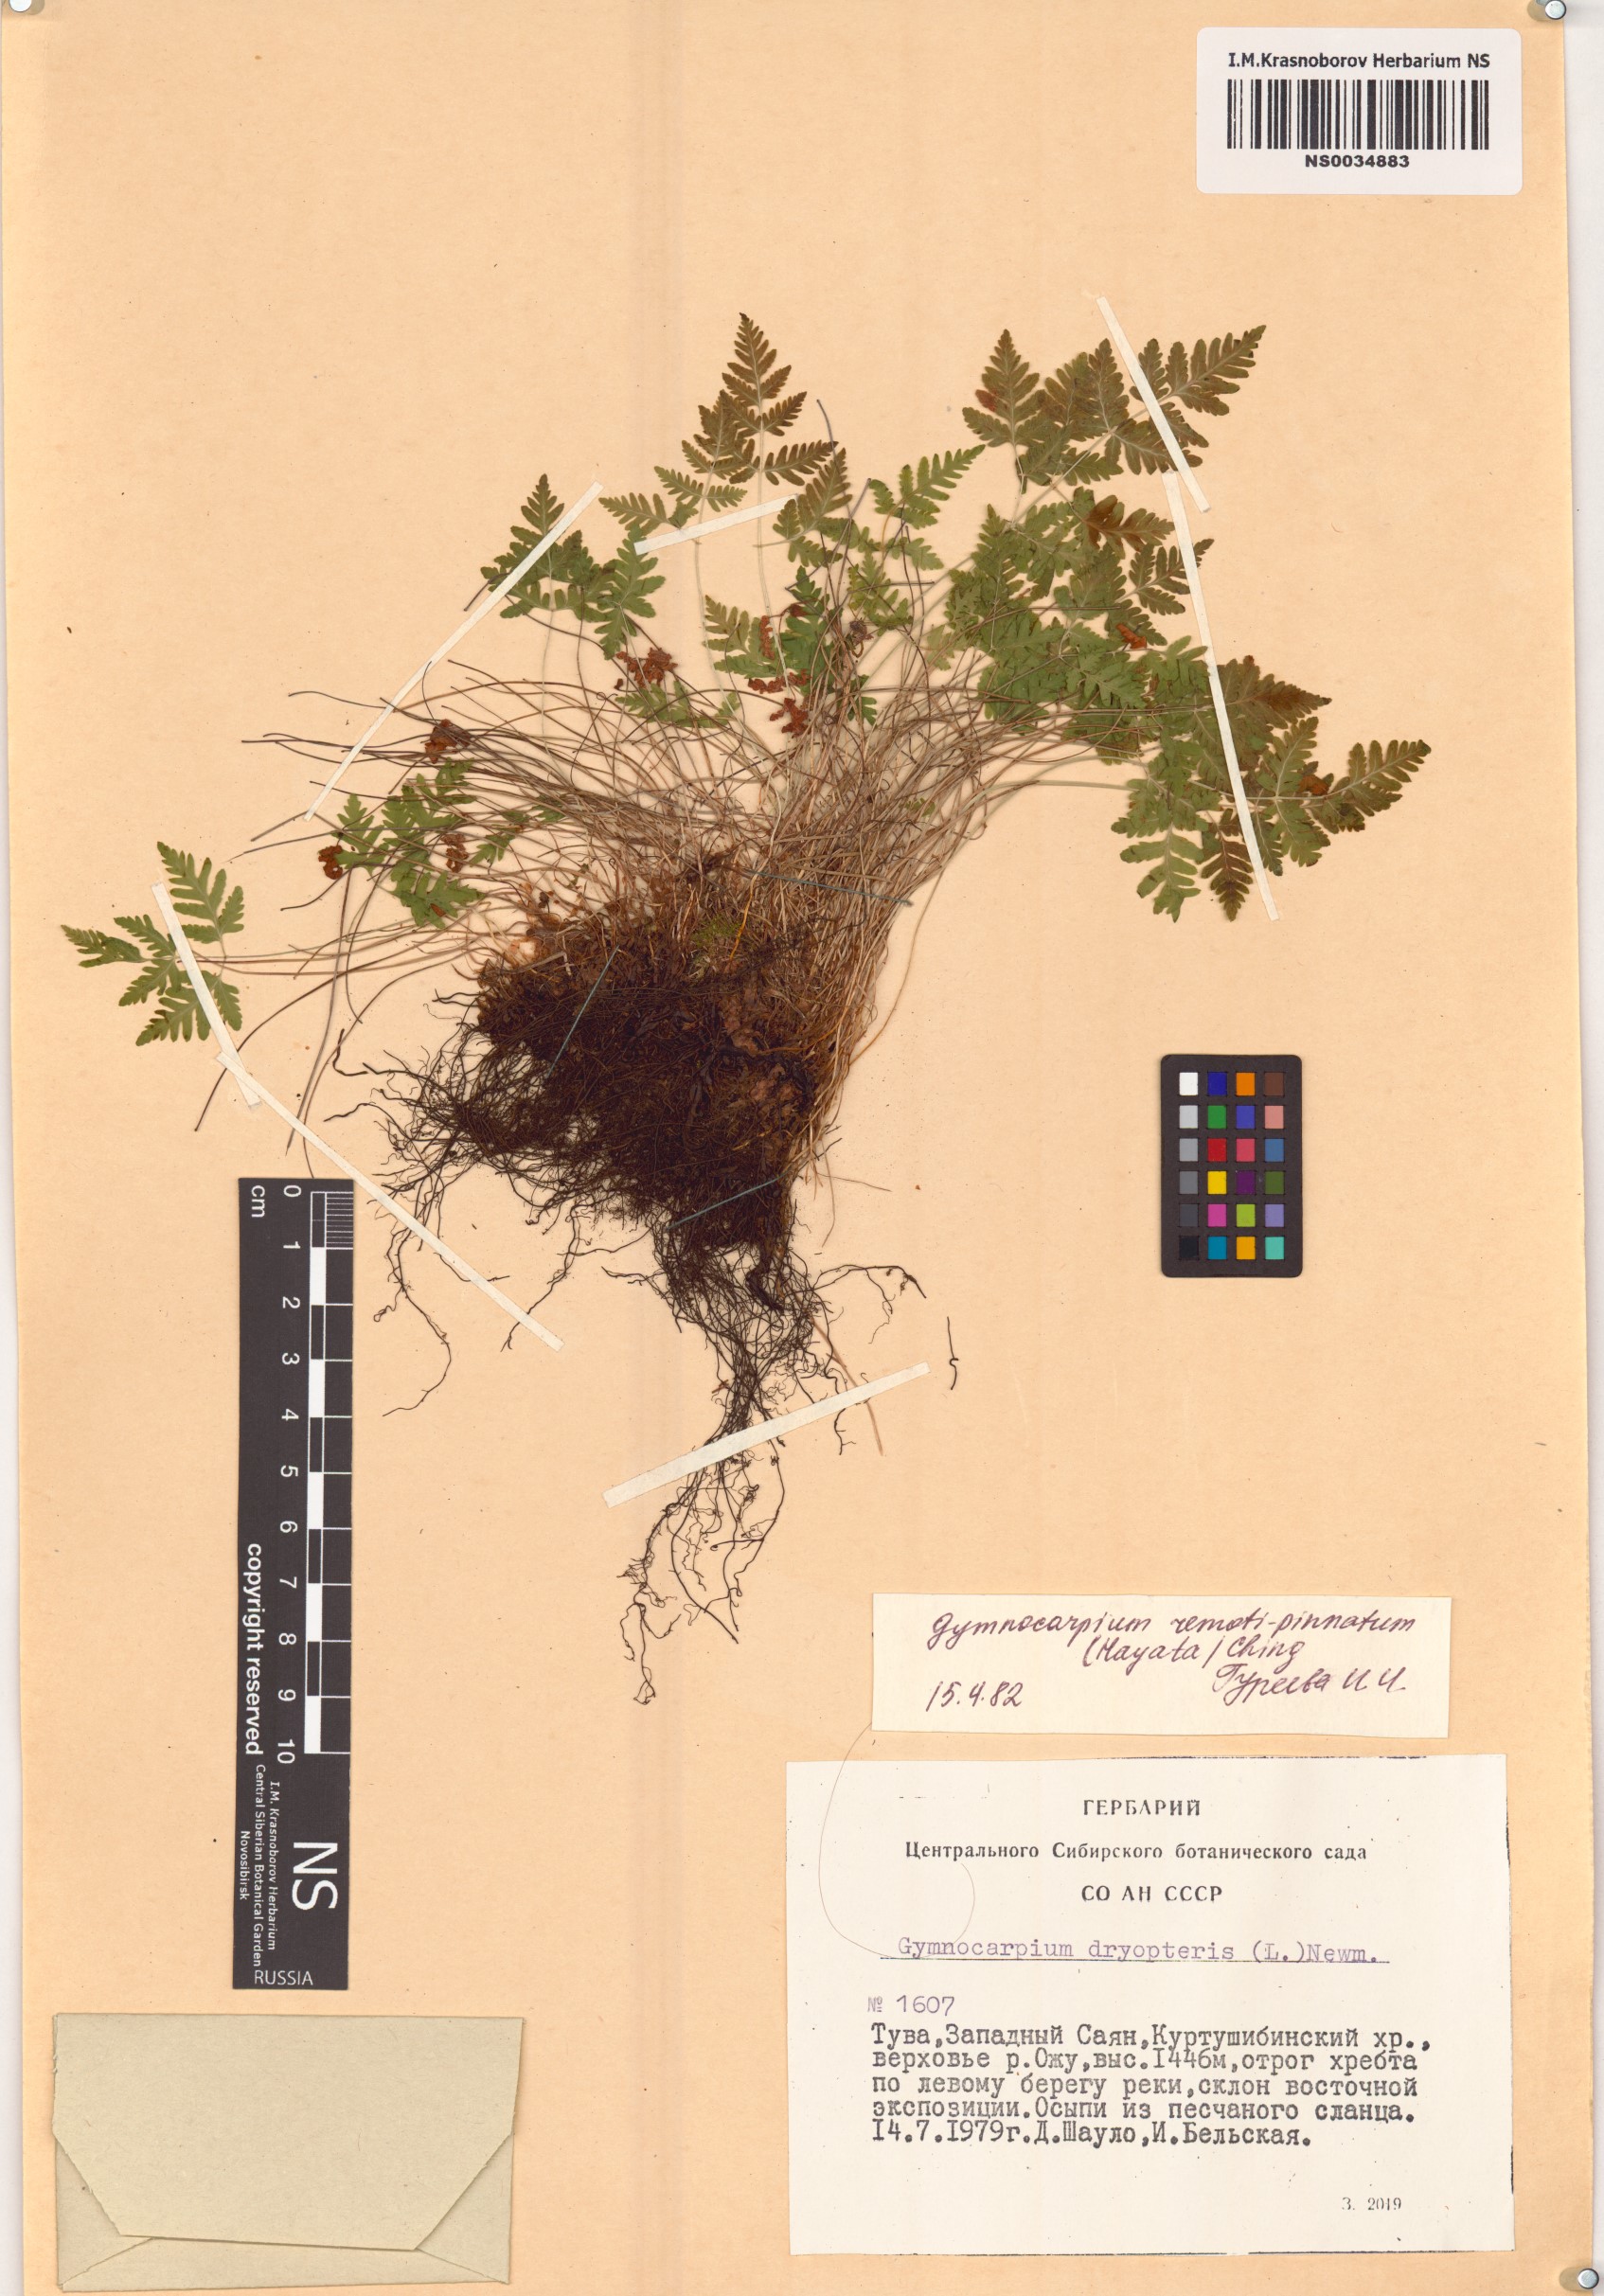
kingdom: Plantae
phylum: Tracheophyta
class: Polypodiopsida
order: Polypodiales
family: Cystopteridaceae
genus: Gymnocarpium
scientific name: Gymnocarpium remotepinnatum
